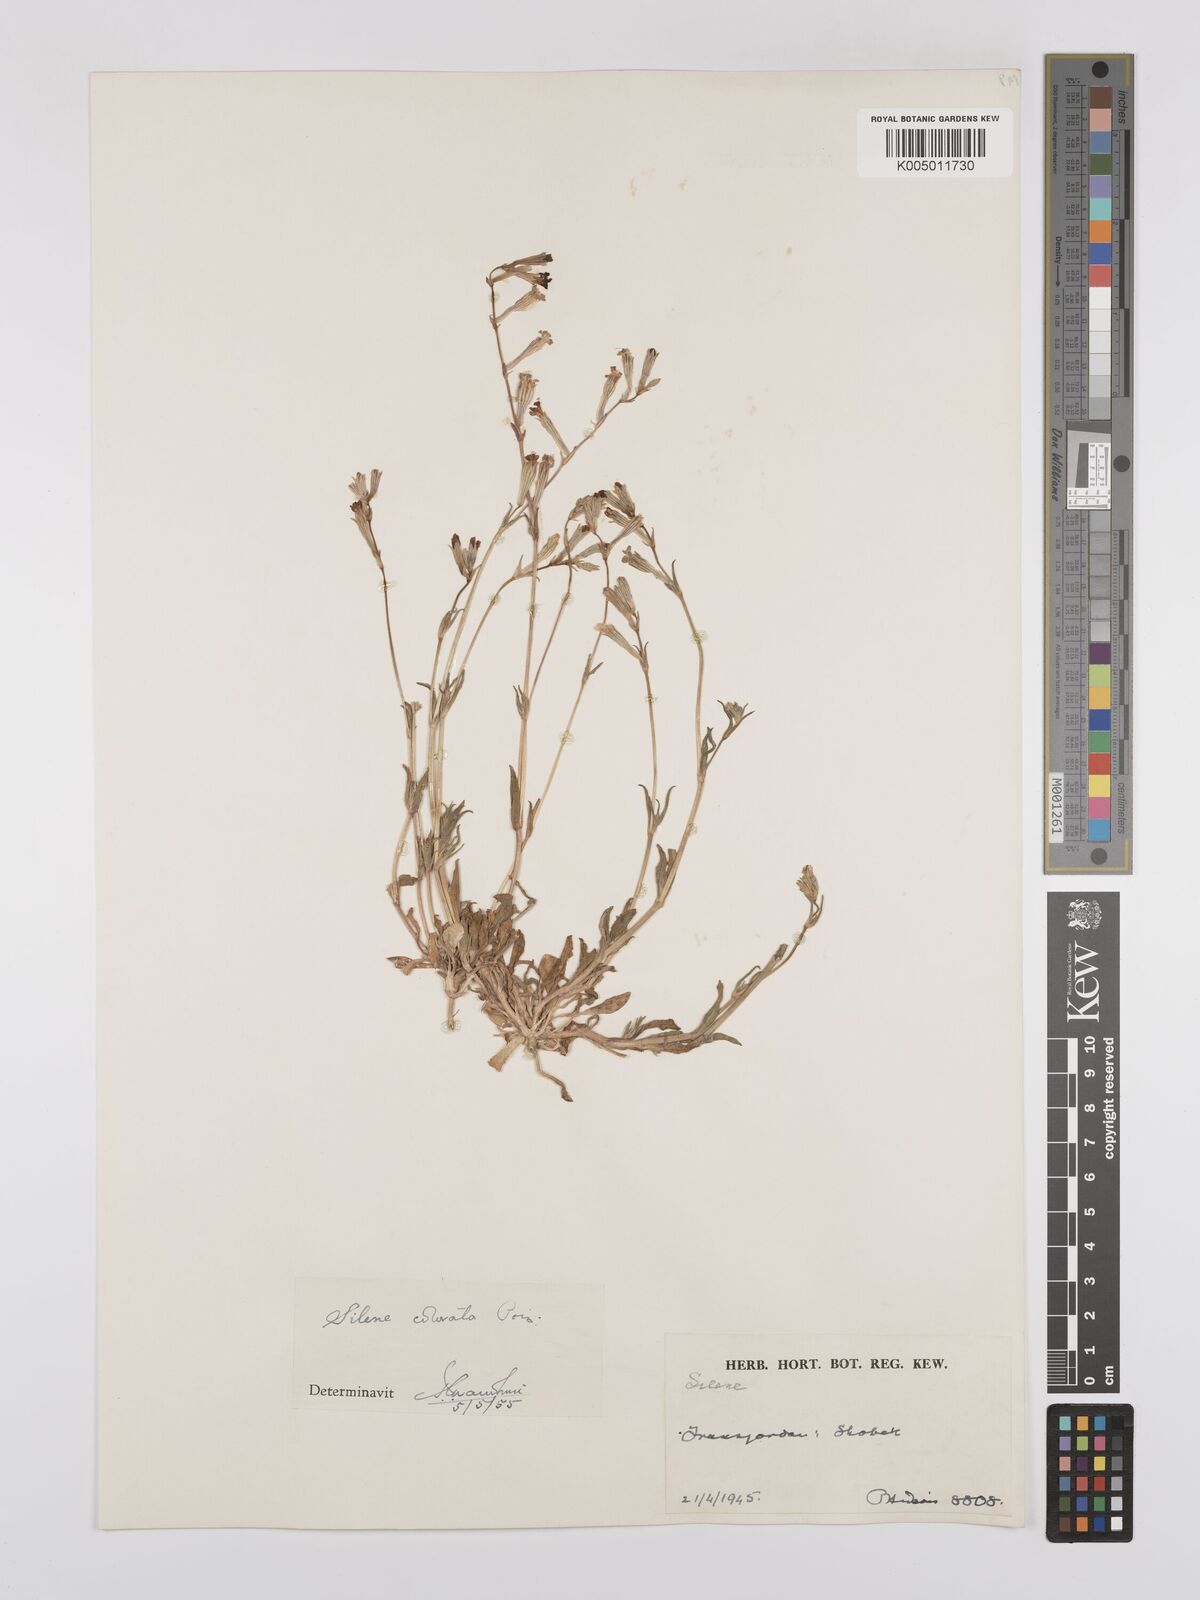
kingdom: Plantae
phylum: Tracheophyta
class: Magnoliopsida
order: Caryophyllales
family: Caryophyllaceae
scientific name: Caryophyllaceae
